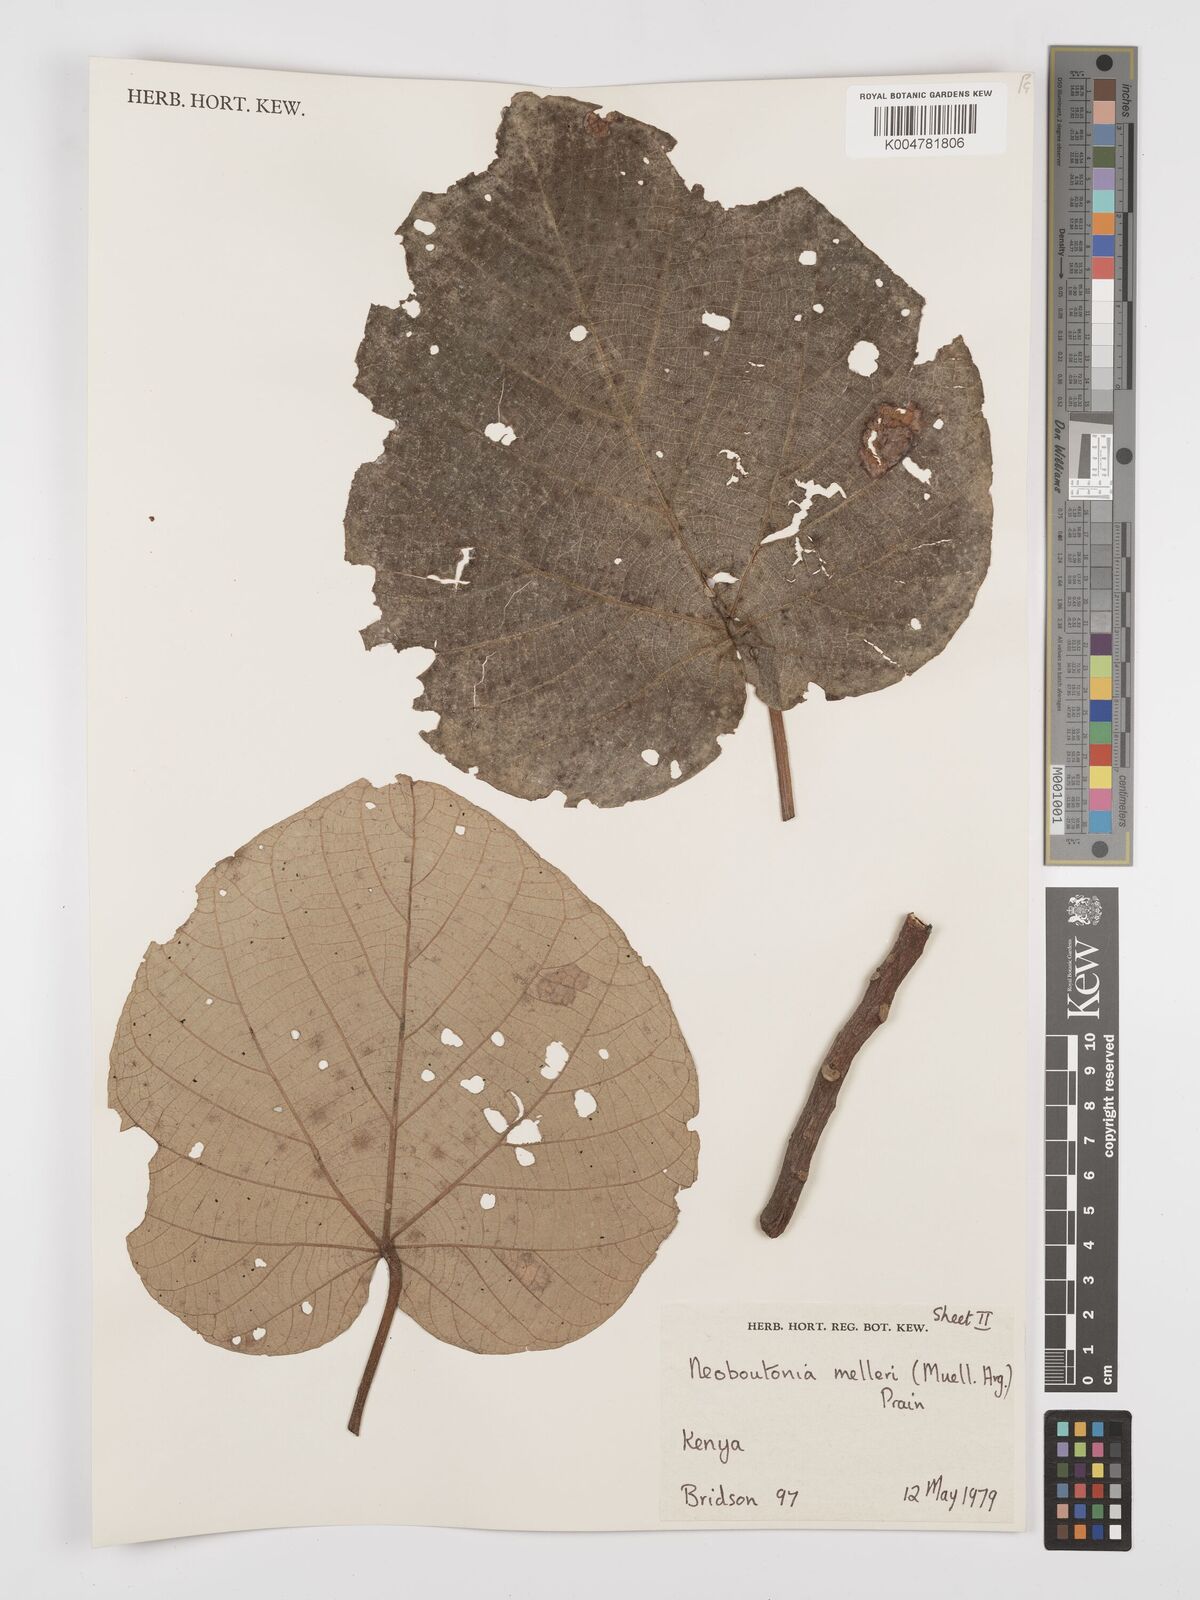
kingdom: Plantae
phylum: Tracheophyta
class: Magnoliopsida
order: Malpighiales
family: Euphorbiaceae
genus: Neoboutonia
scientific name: Neoboutonia melleri
